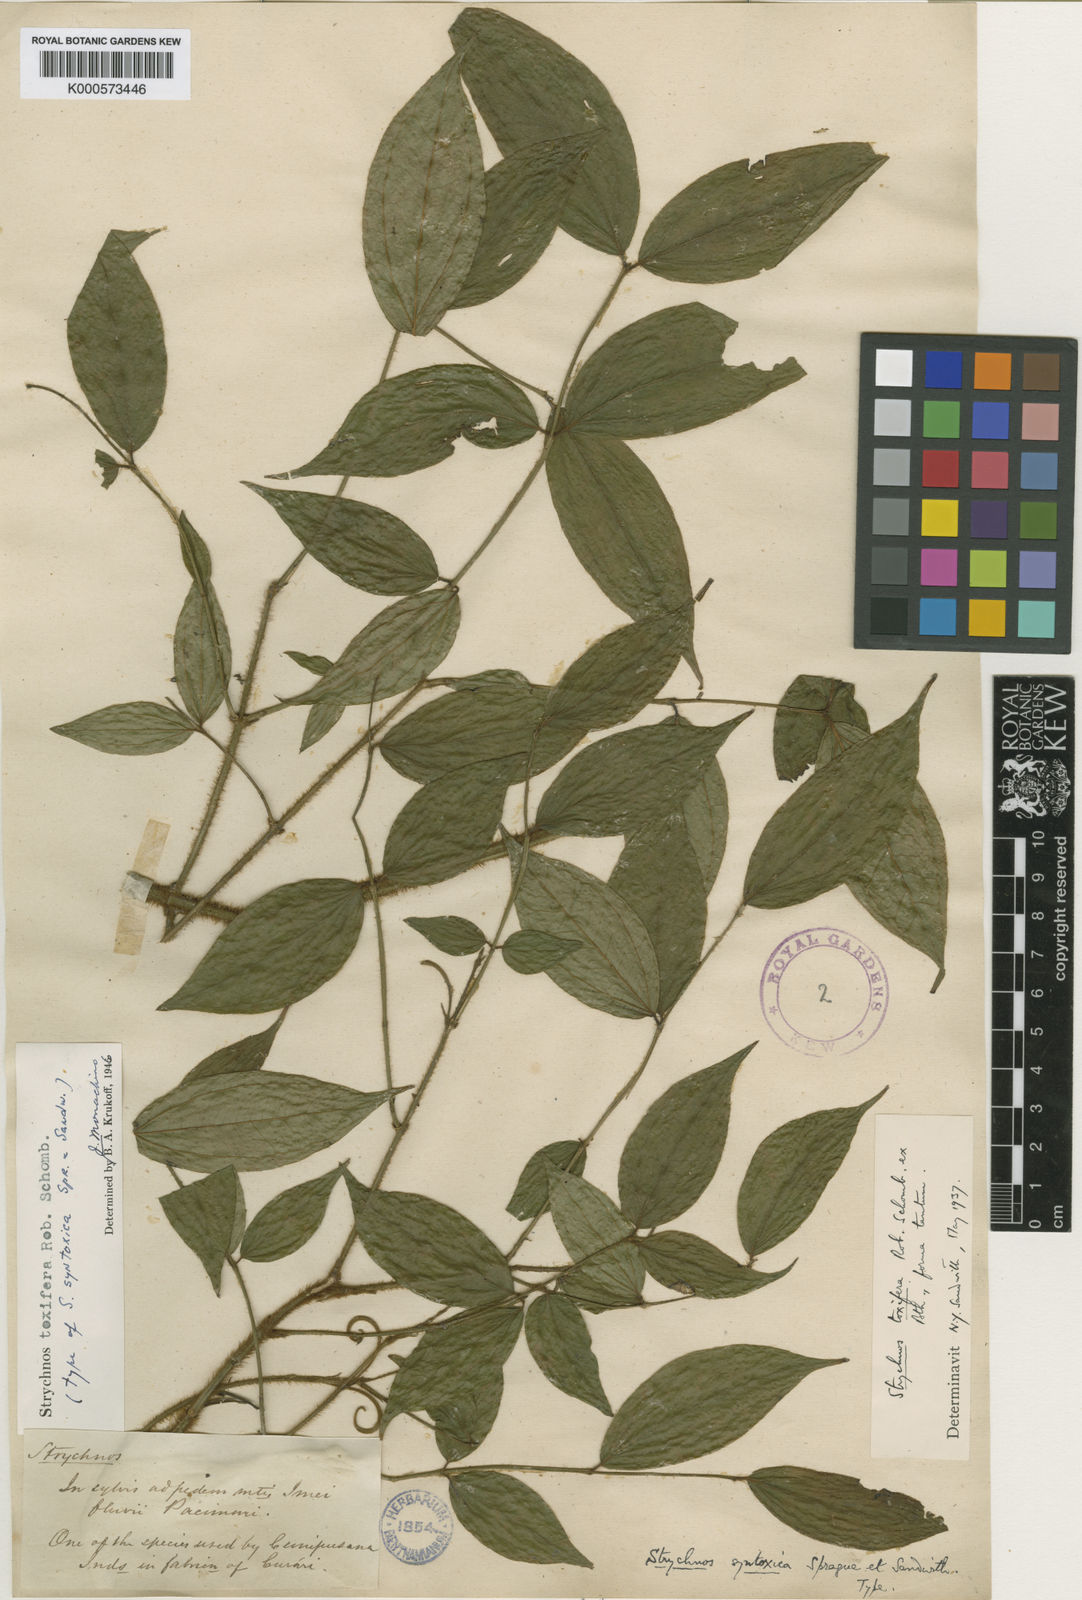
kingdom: Plantae
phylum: Tracheophyta
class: Magnoliopsida
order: Gentianales
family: Loganiaceae
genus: Strychnos
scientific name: Strychnos toxifera
